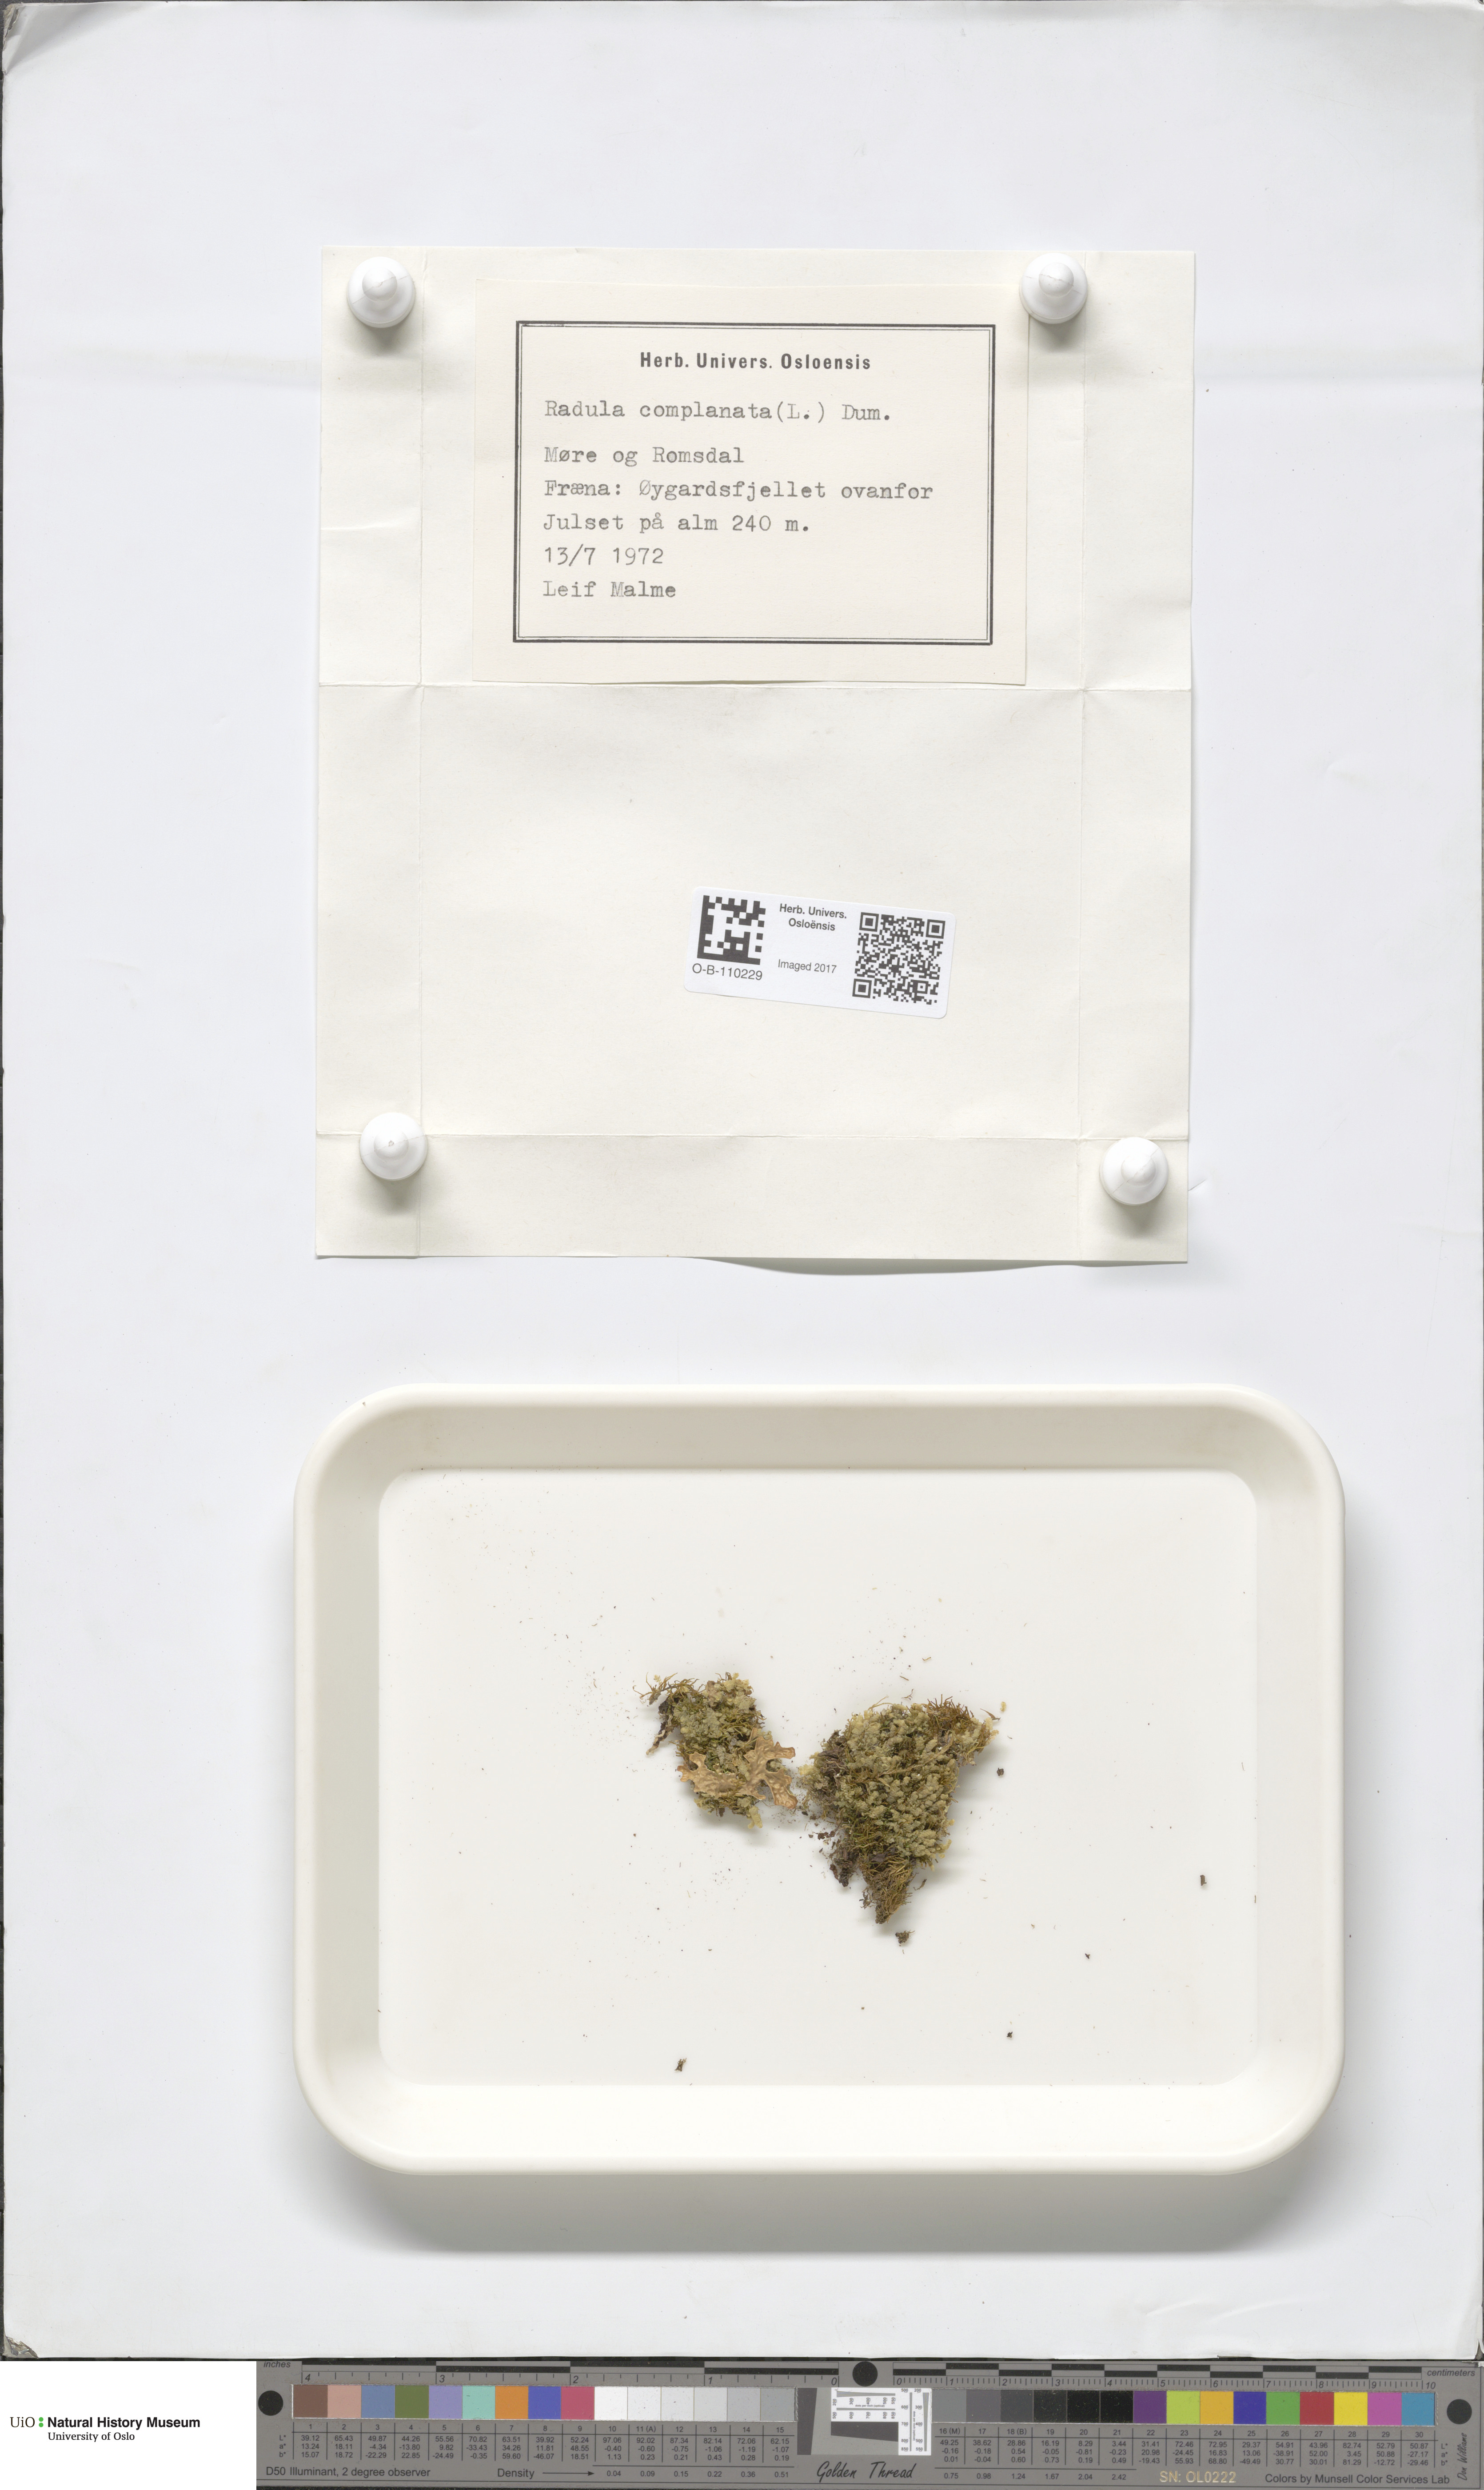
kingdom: Plantae
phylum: Marchantiophyta
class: Jungermanniopsida
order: Jungermanniales
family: Lophoziaceae
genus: Trilophozia
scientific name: Trilophozia quinquedentata
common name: Large notchwort
